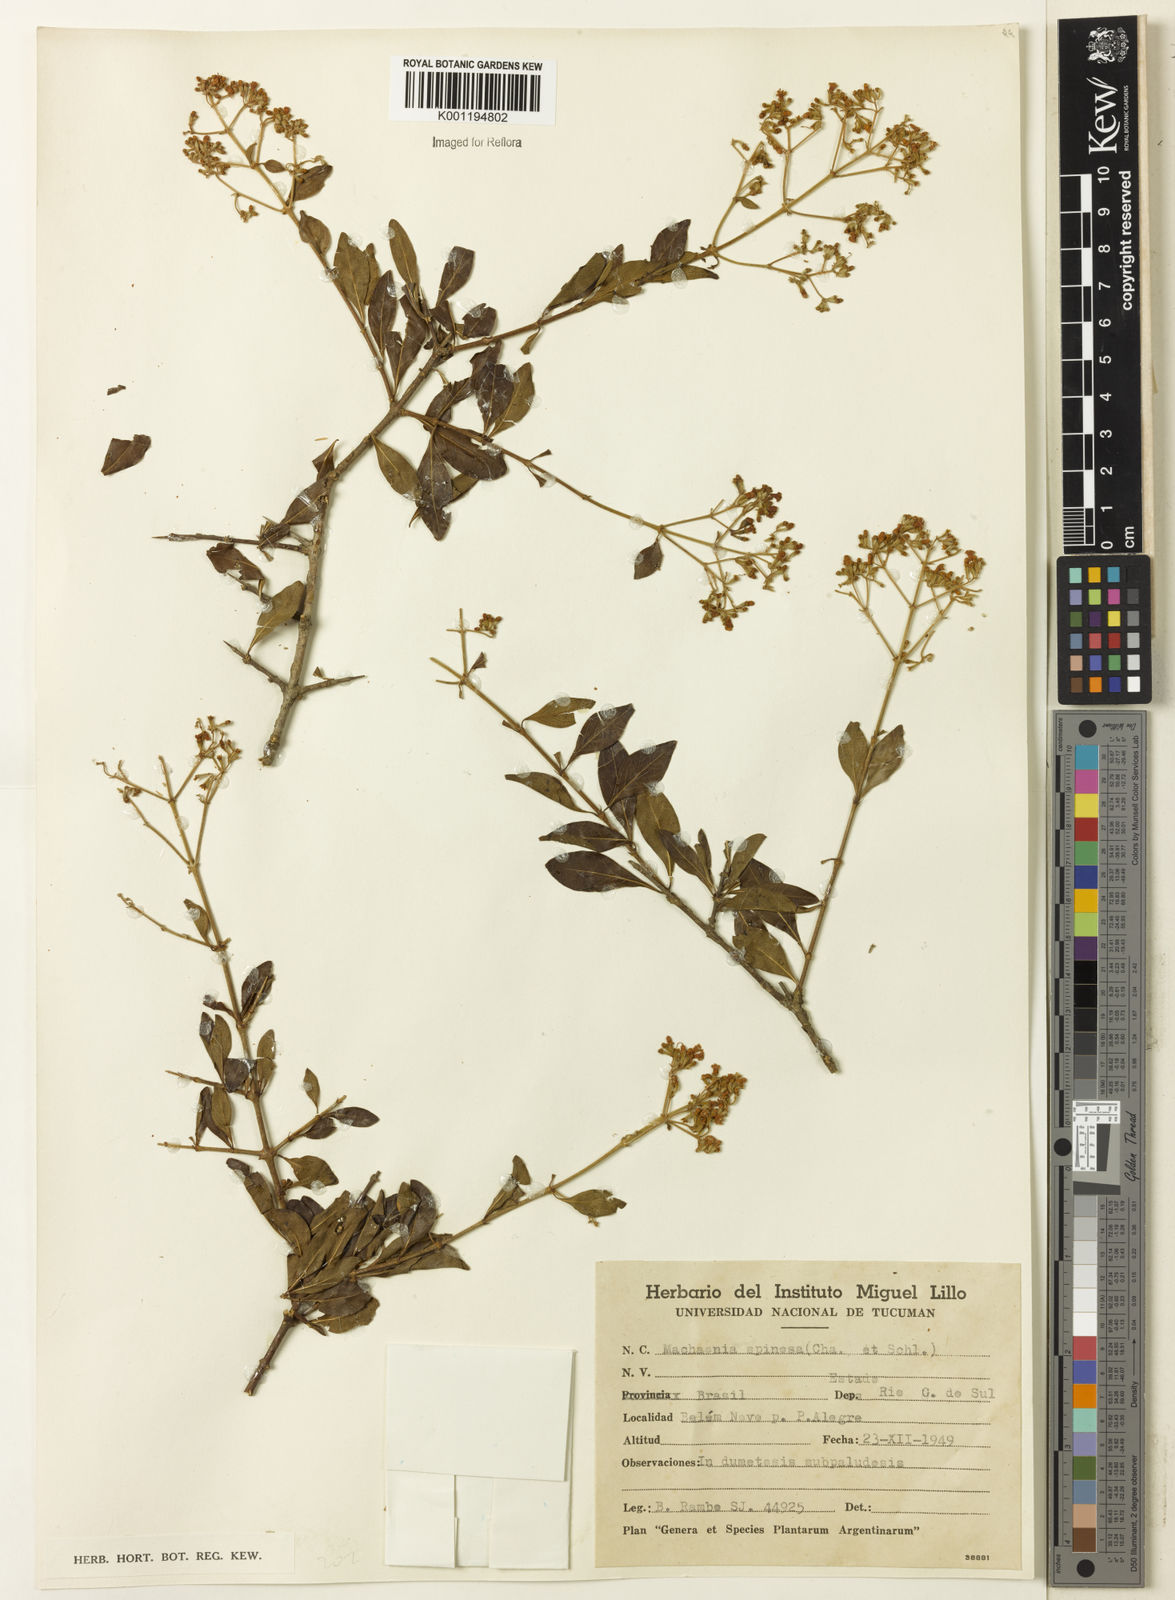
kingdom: Plantae
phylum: Tracheophyta
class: Magnoliopsida
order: Gentianales
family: Rubiaceae
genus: Machaonia
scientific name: Machaonia brasiliensis
